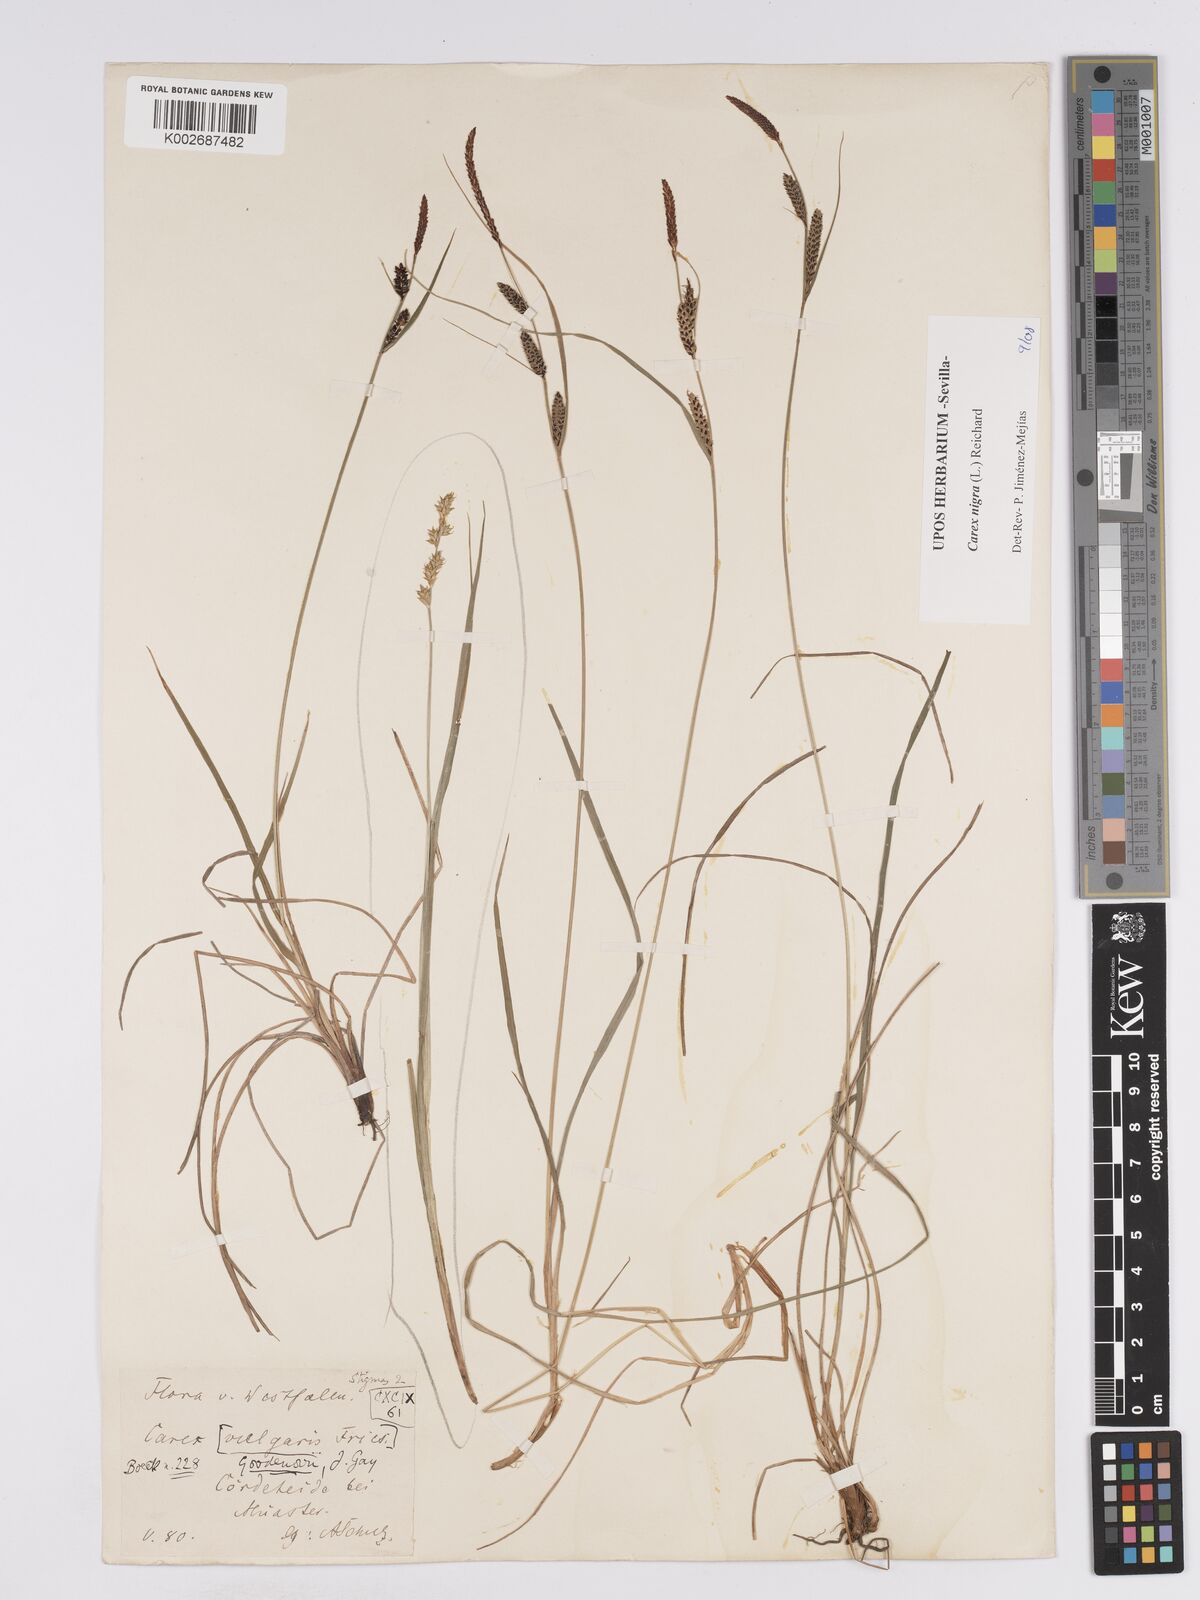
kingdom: Plantae
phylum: Tracheophyta
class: Liliopsida
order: Poales
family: Cyperaceae
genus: Carex
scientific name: Carex nigra
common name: Common sedge
